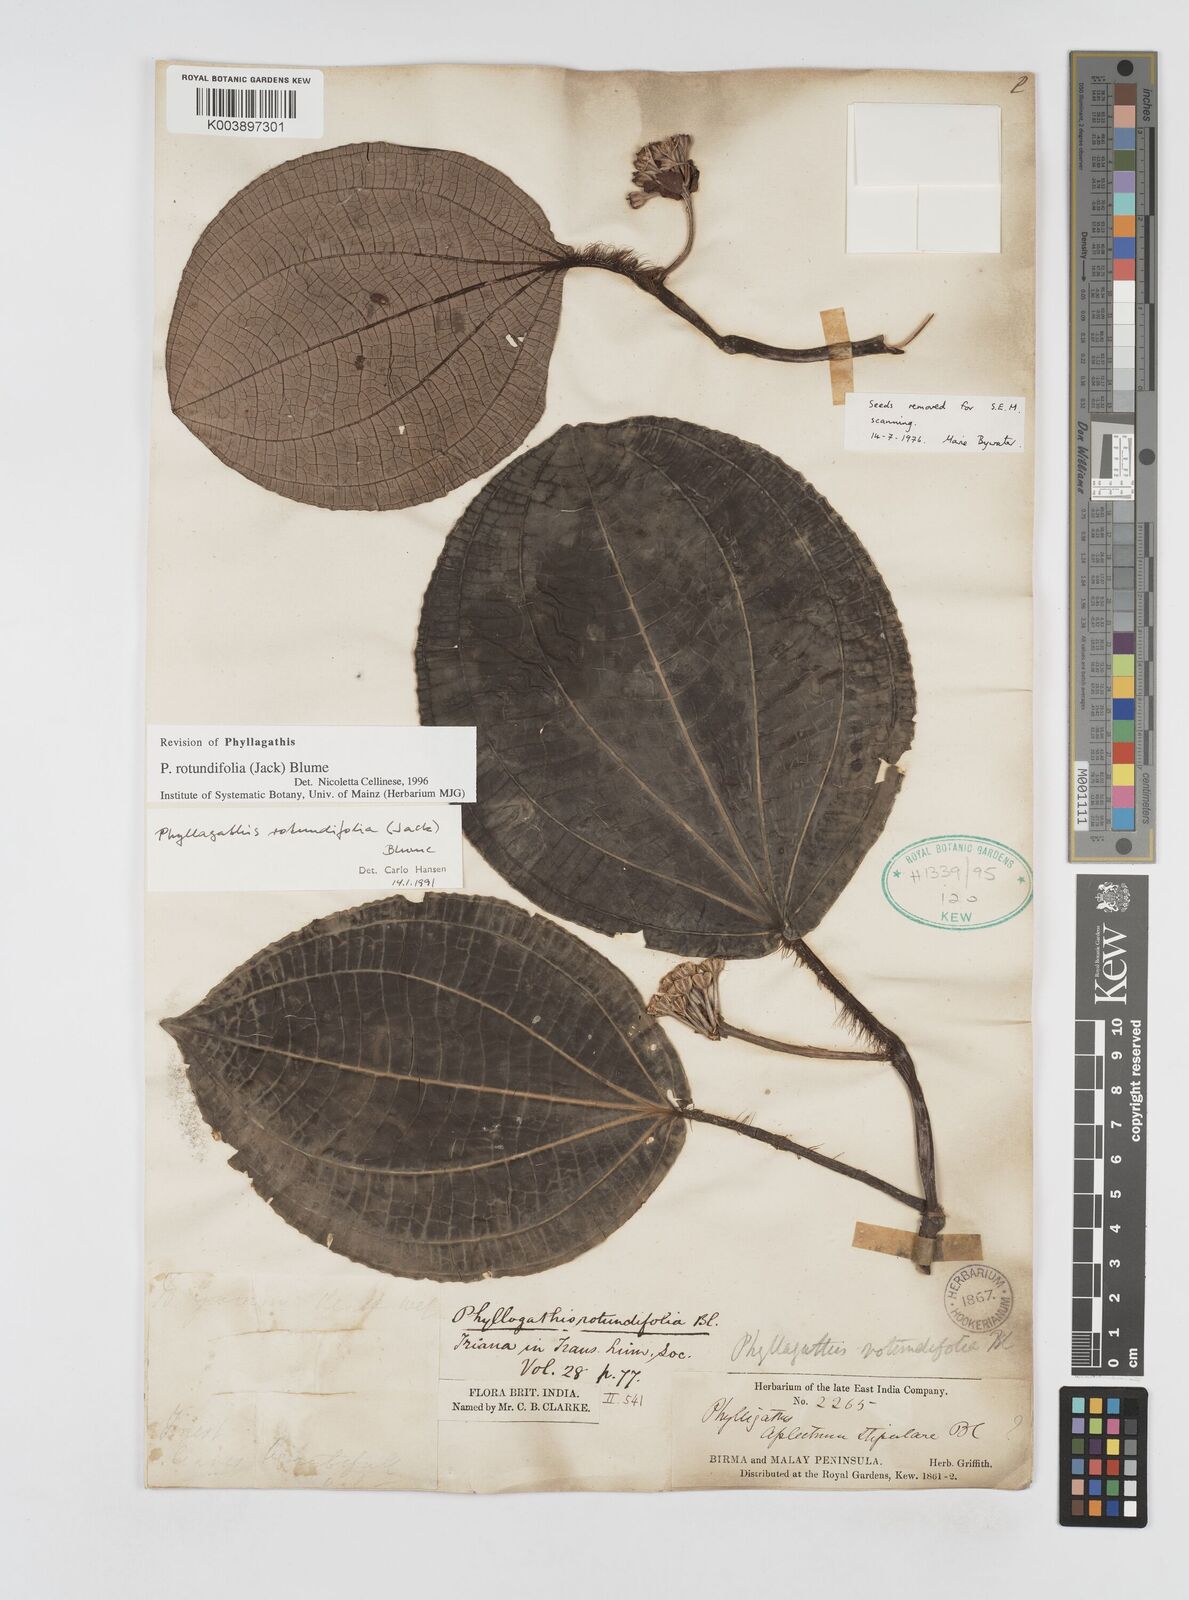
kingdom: Plantae
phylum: Tracheophyta
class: Magnoliopsida
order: Myrtales
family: Melastomataceae
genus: Phyllagathis
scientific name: Phyllagathis rotundifolia
